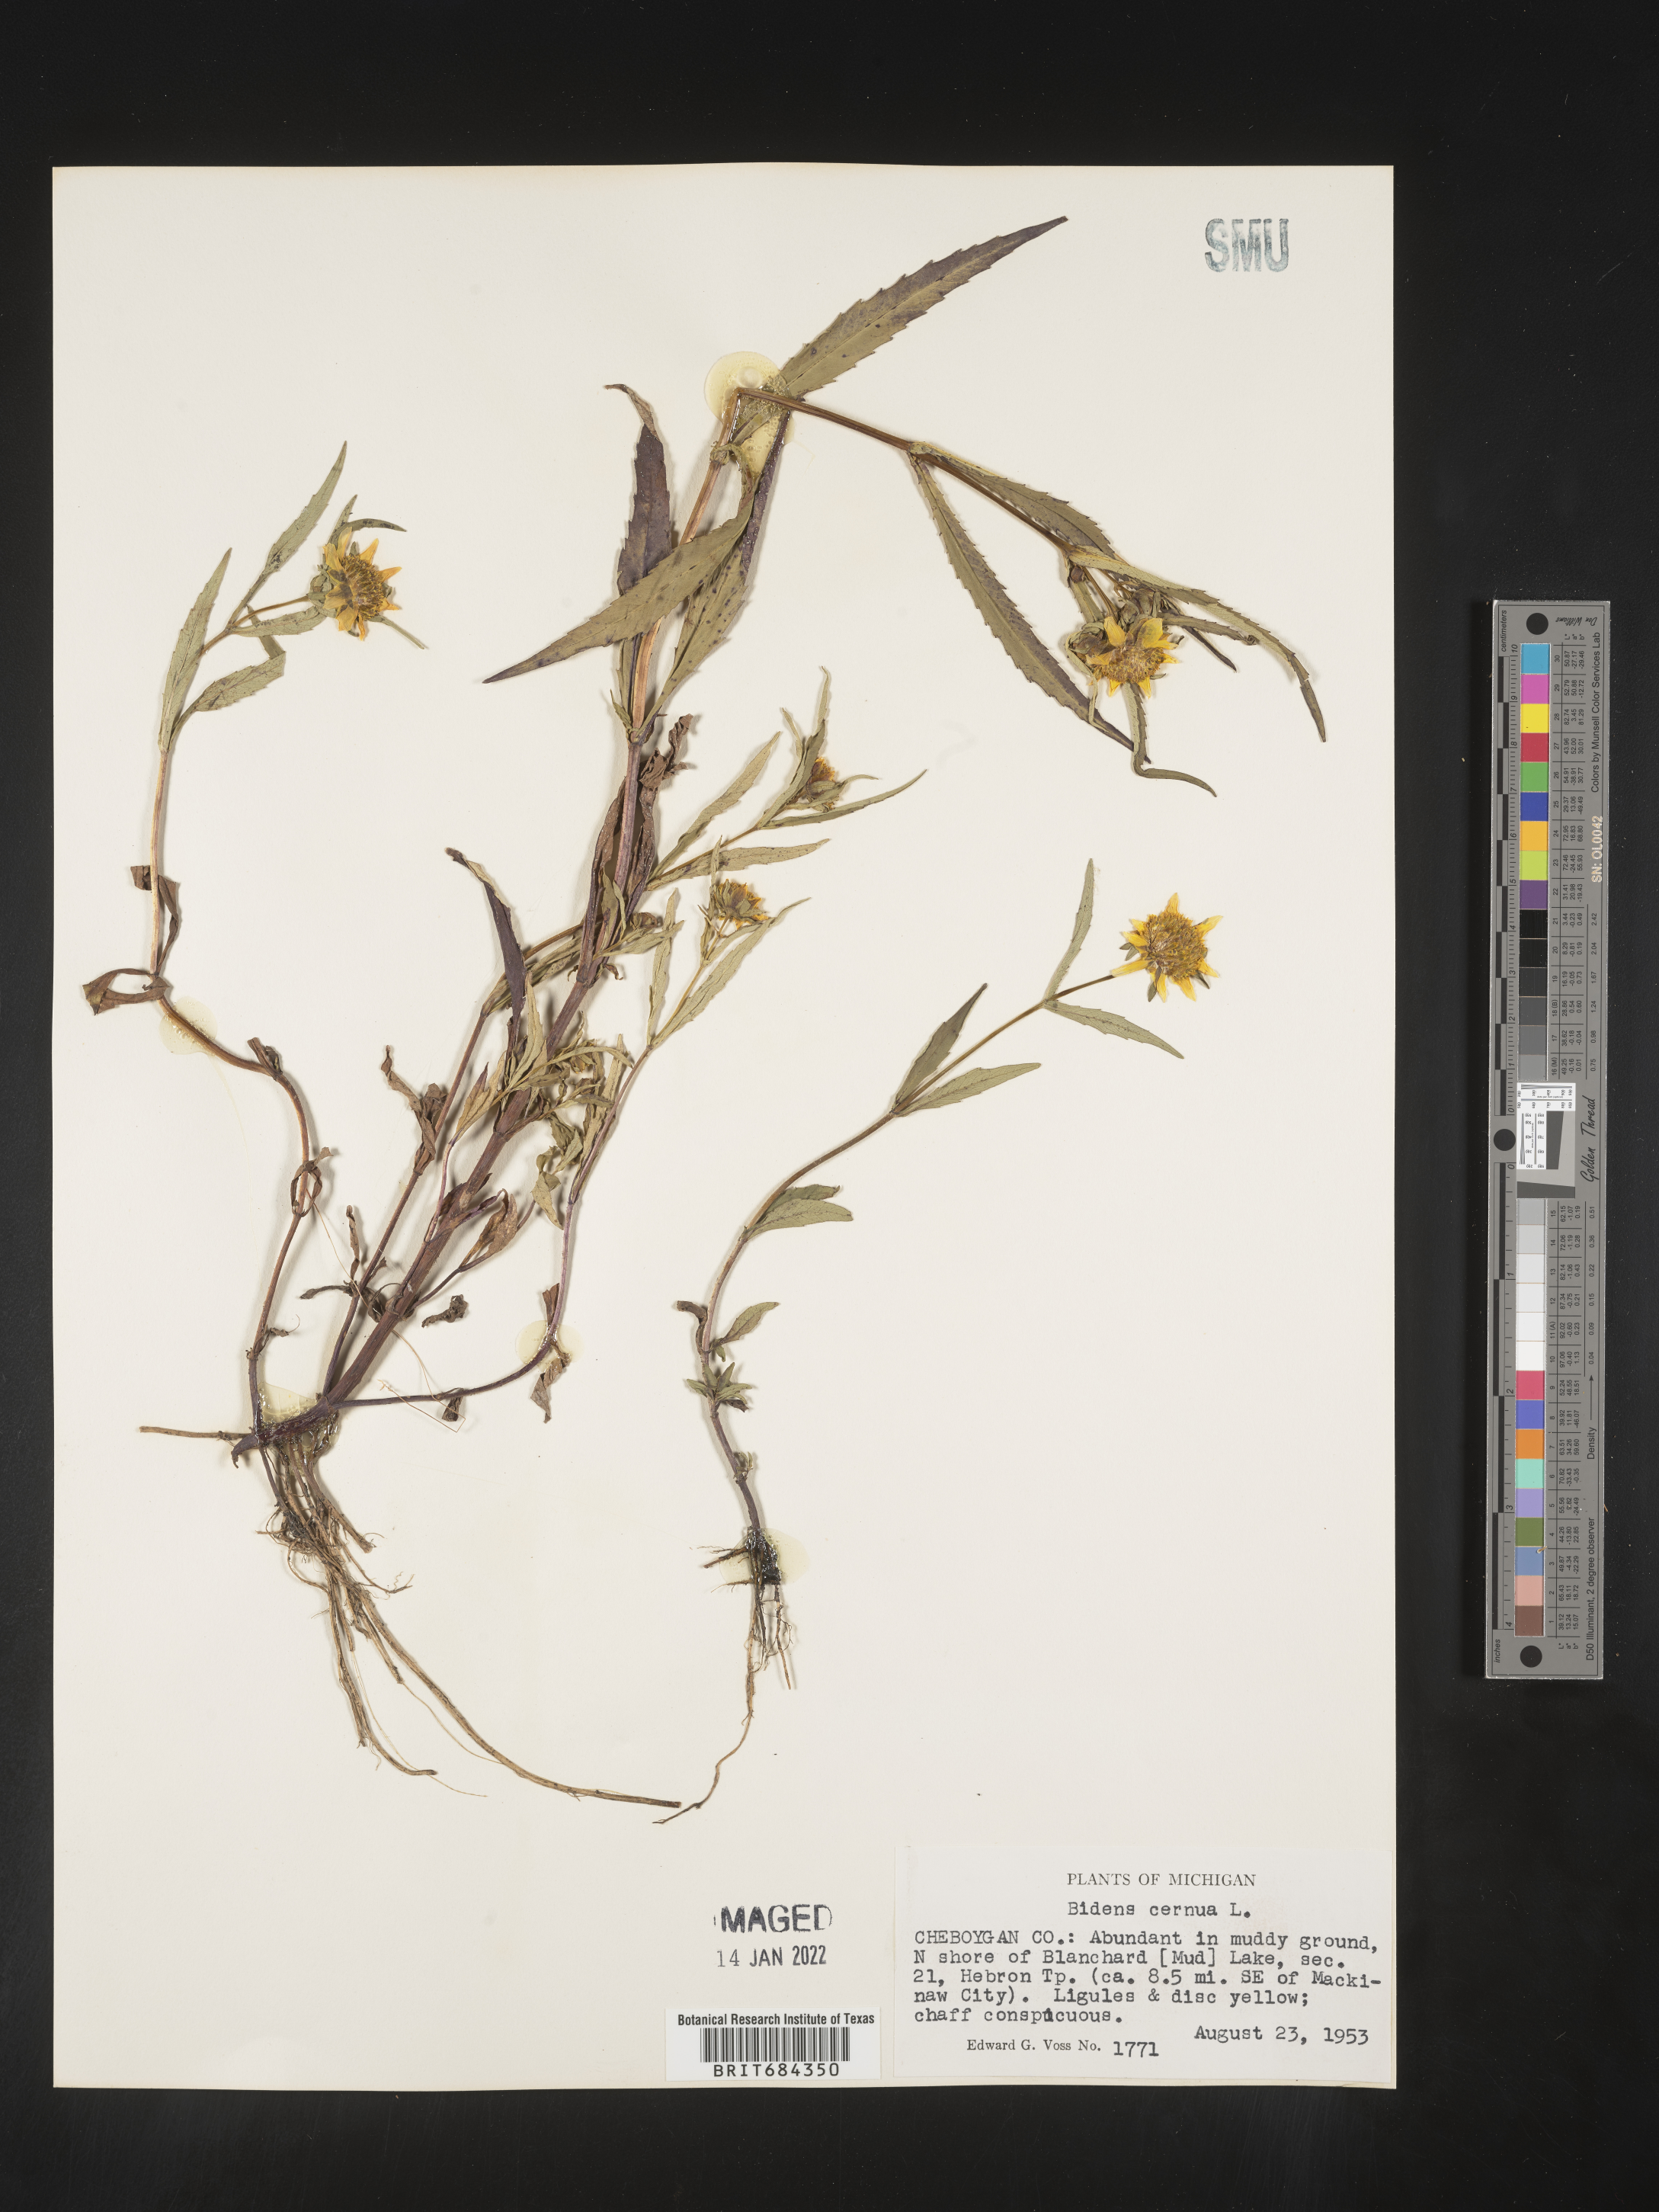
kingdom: Plantae
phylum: Tracheophyta
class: Magnoliopsida
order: Asterales
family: Asteraceae
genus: Bidens
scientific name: Bidens cernua
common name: Nodding bur-marigold
